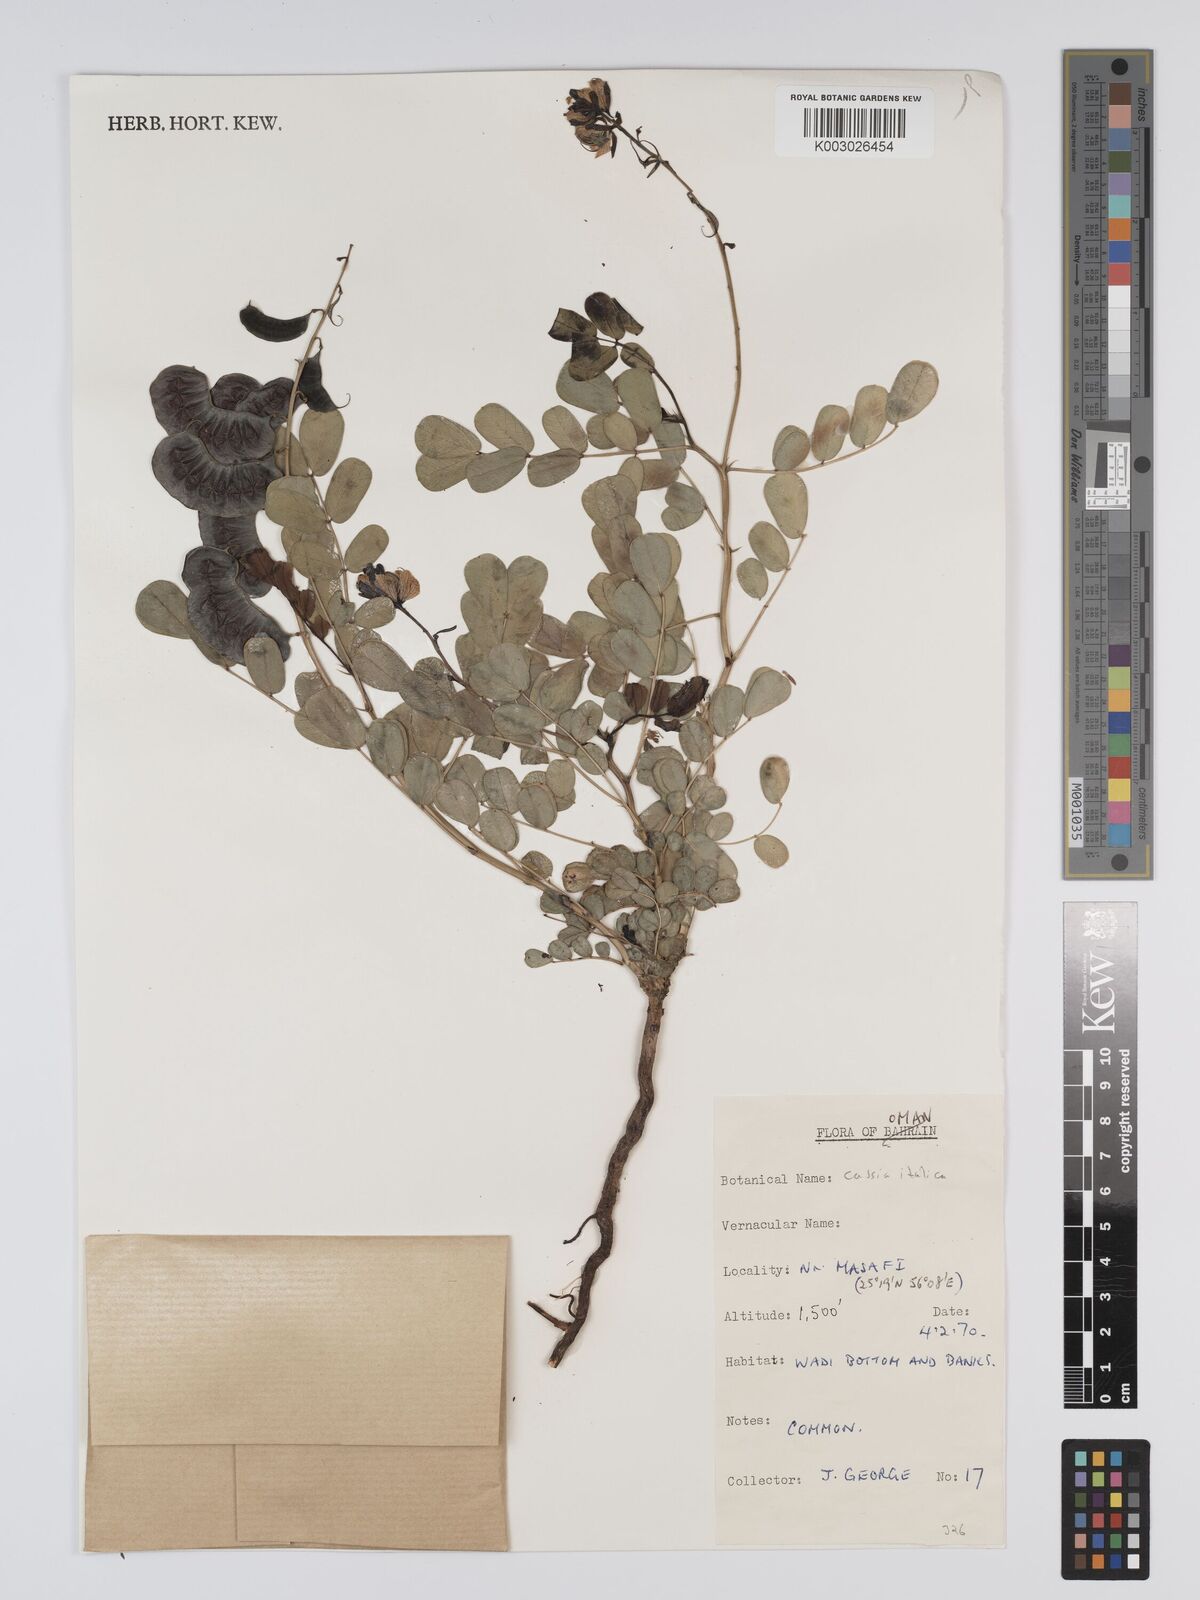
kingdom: Plantae
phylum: Tracheophyta
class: Magnoliopsida
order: Fabales
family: Fabaceae
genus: Cassia
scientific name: Cassia
